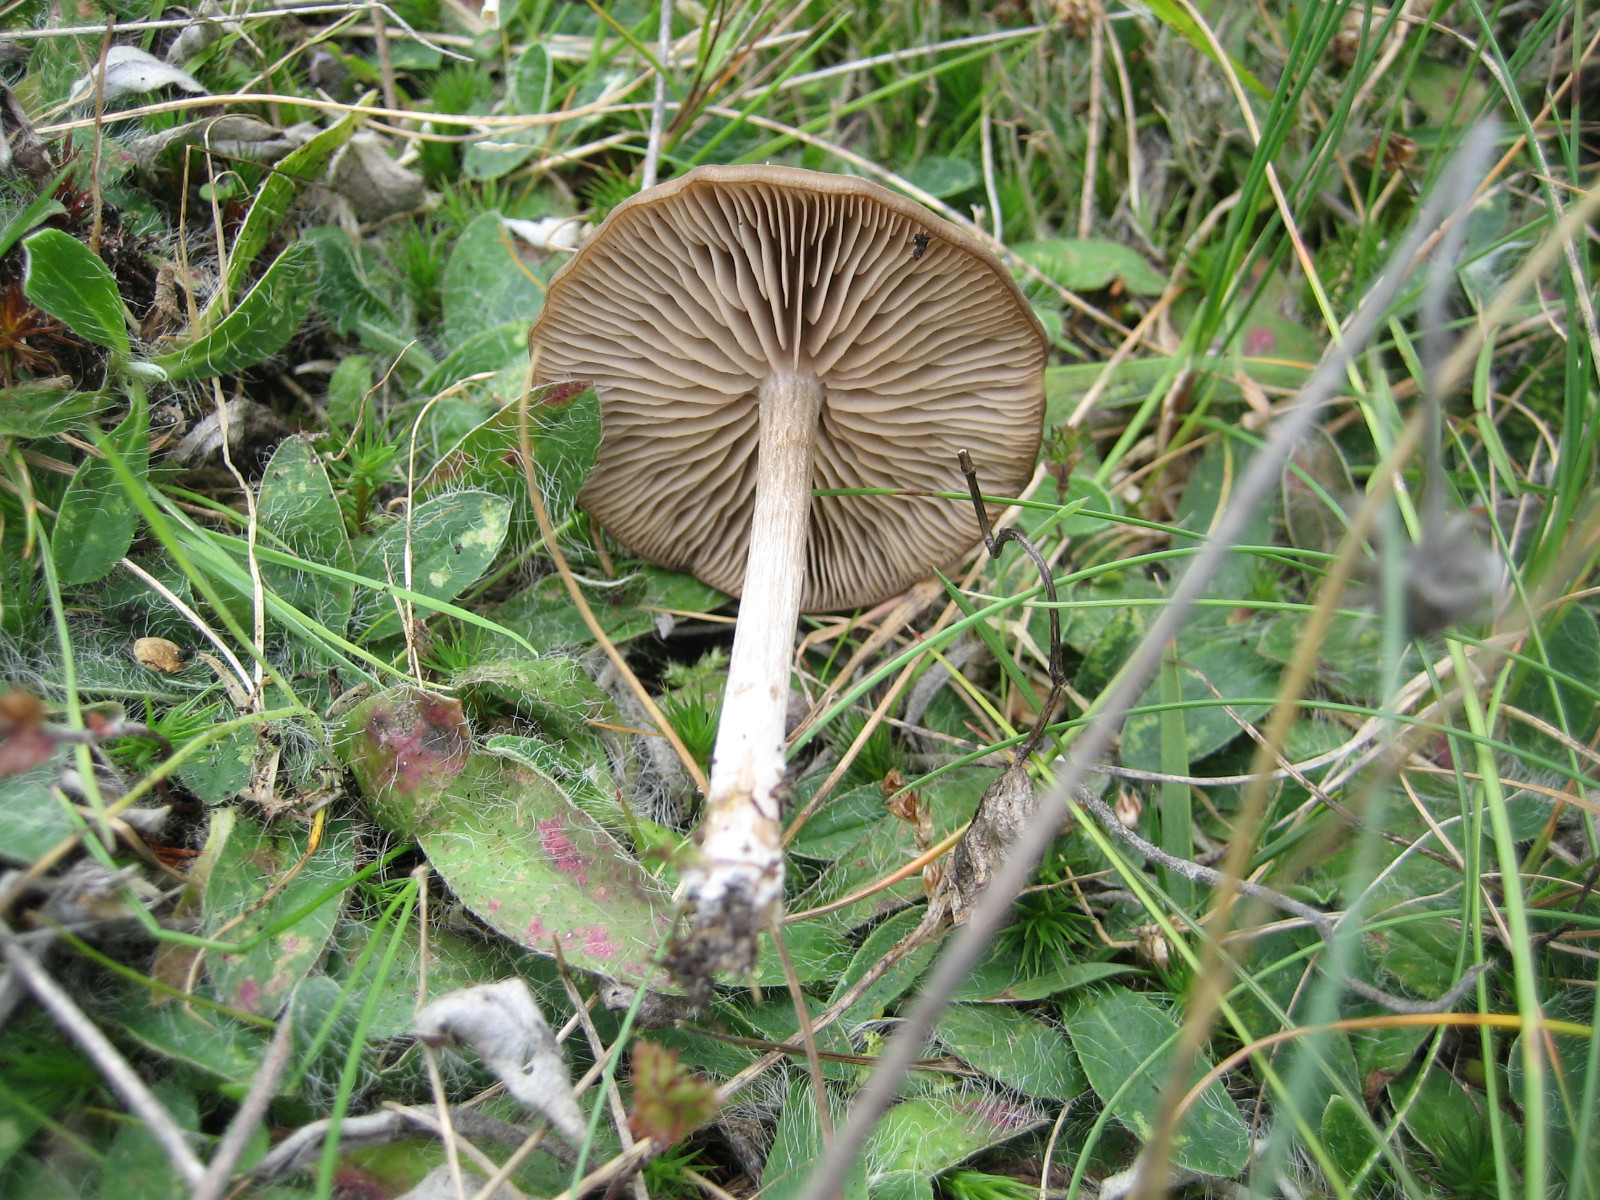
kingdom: Fungi
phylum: Basidiomycota
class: Agaricomycetes
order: Agaricales
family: Entolomataceae
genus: Entoloma
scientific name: Entoloma
